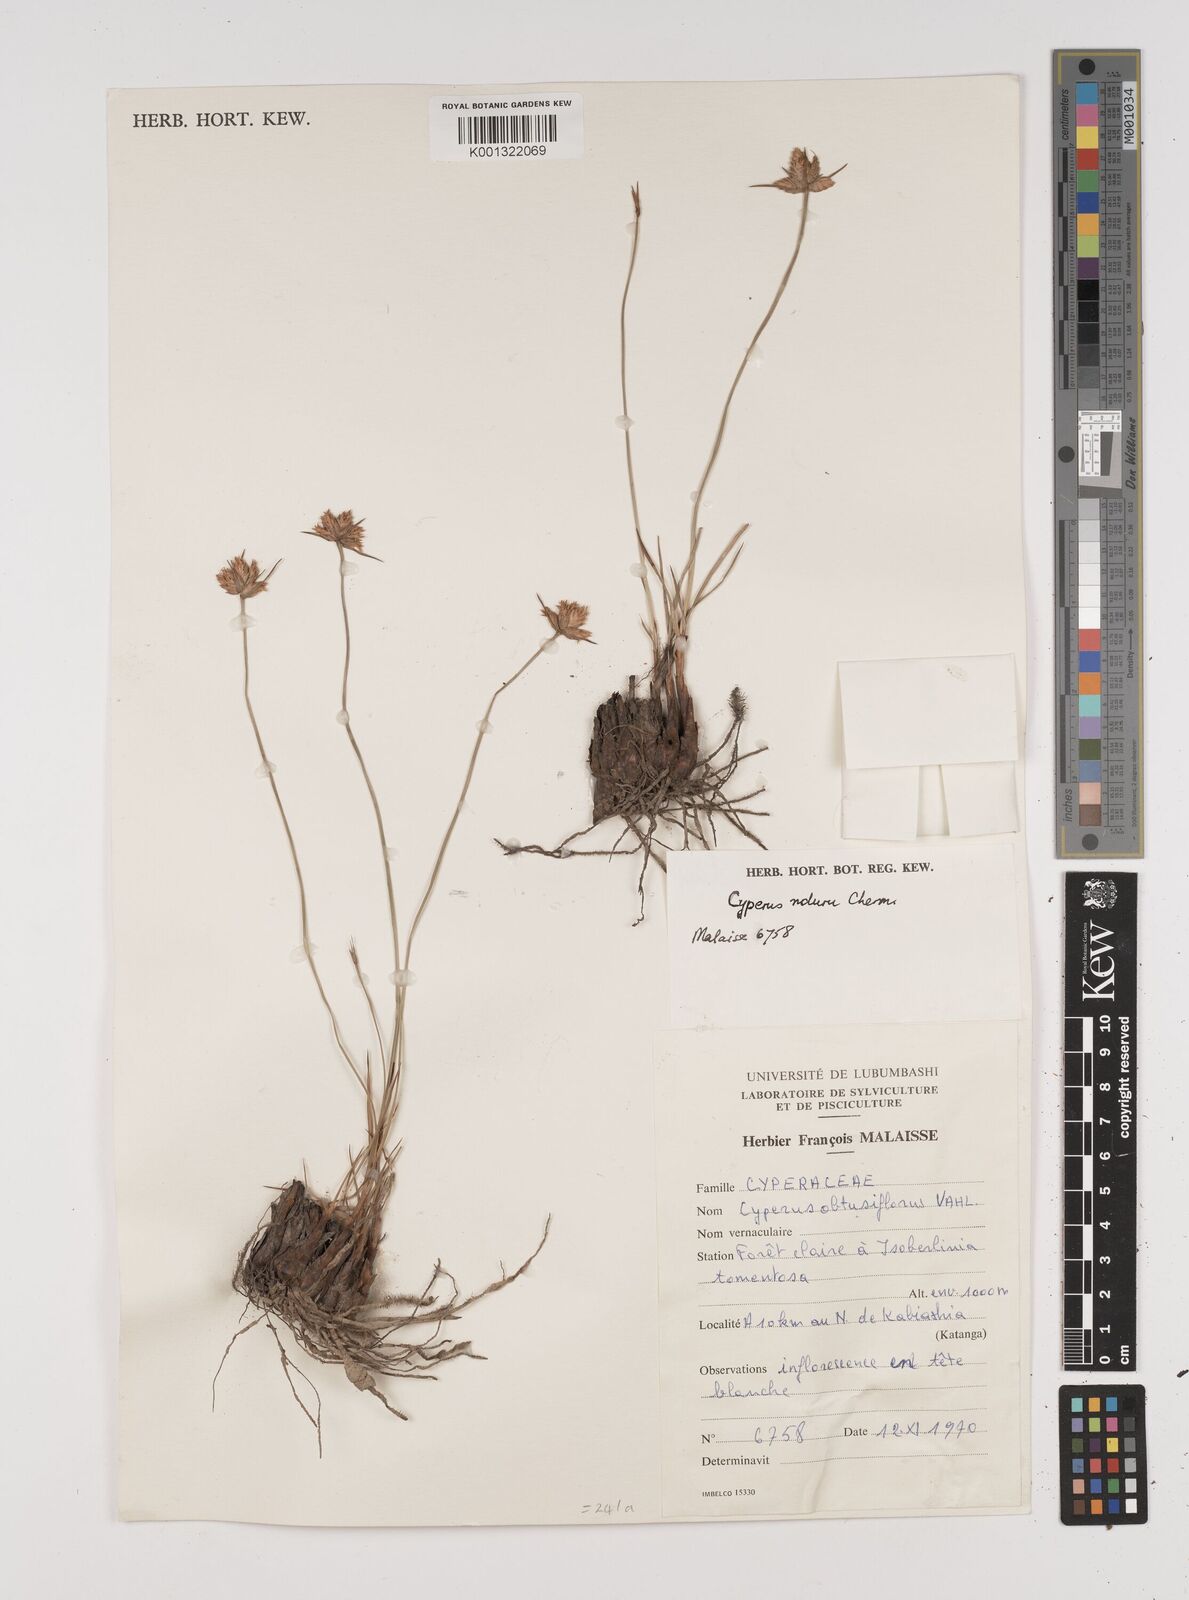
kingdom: Plantae
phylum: Tracheophyta
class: Liliopsida
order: Poales
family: Cyperaceae
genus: Cyperus
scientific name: Cyperus nduru
